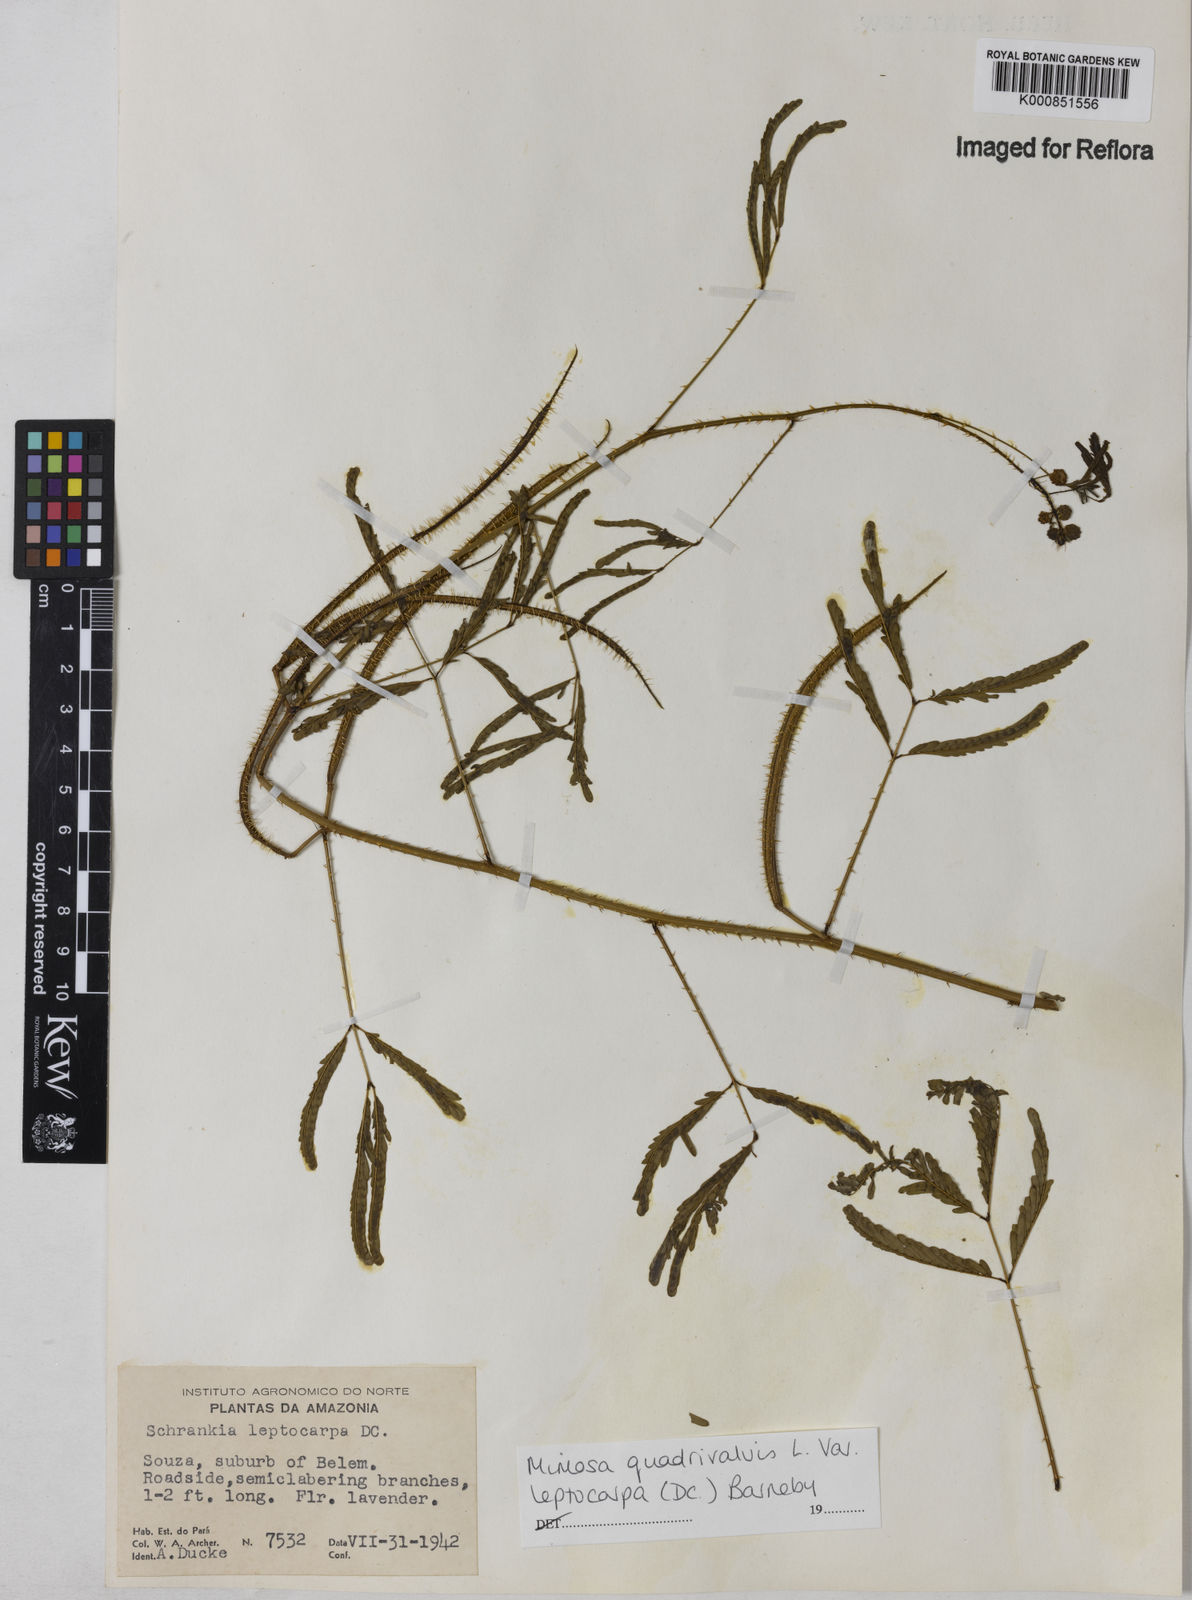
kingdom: Plantae
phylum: Tracheophyta
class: Magnoliopsida
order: Fabales
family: Fabaceae
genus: Mimosa
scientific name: Mimosa candollei
